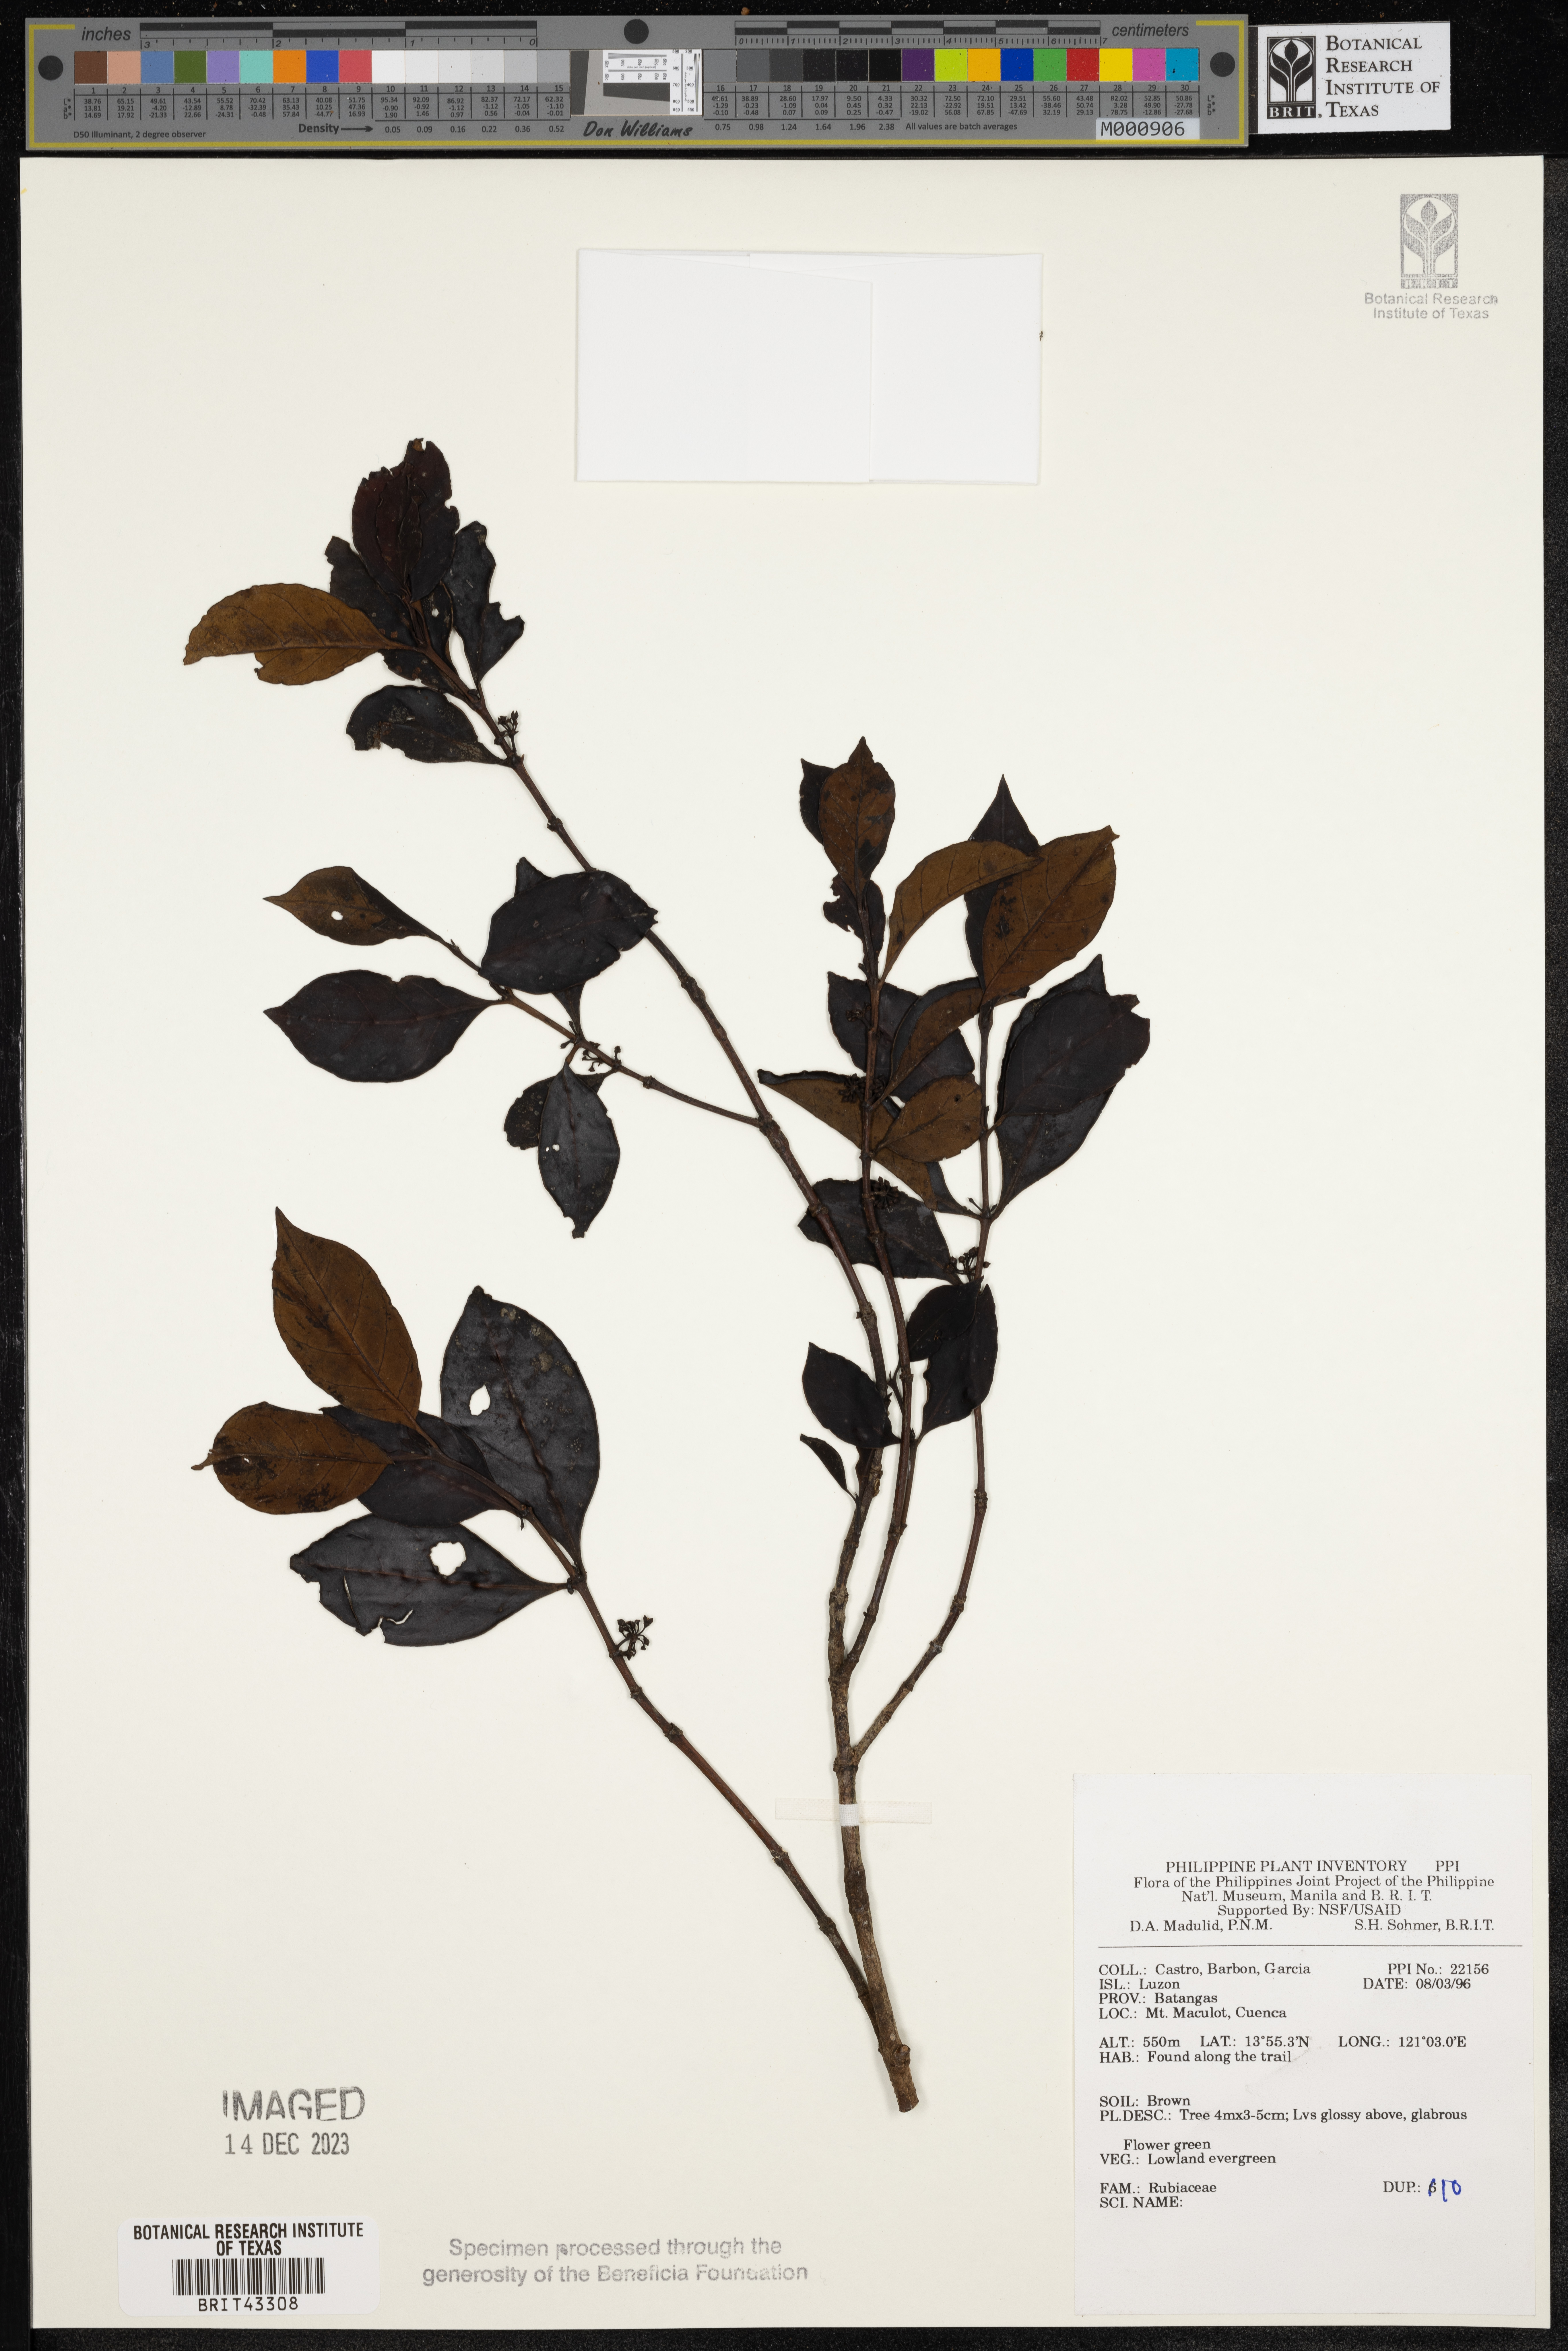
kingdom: Plantae
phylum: Tracheophyta
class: Magnoliopsida
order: Gentianales
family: Rubiaceae
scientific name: Rubiaceae
